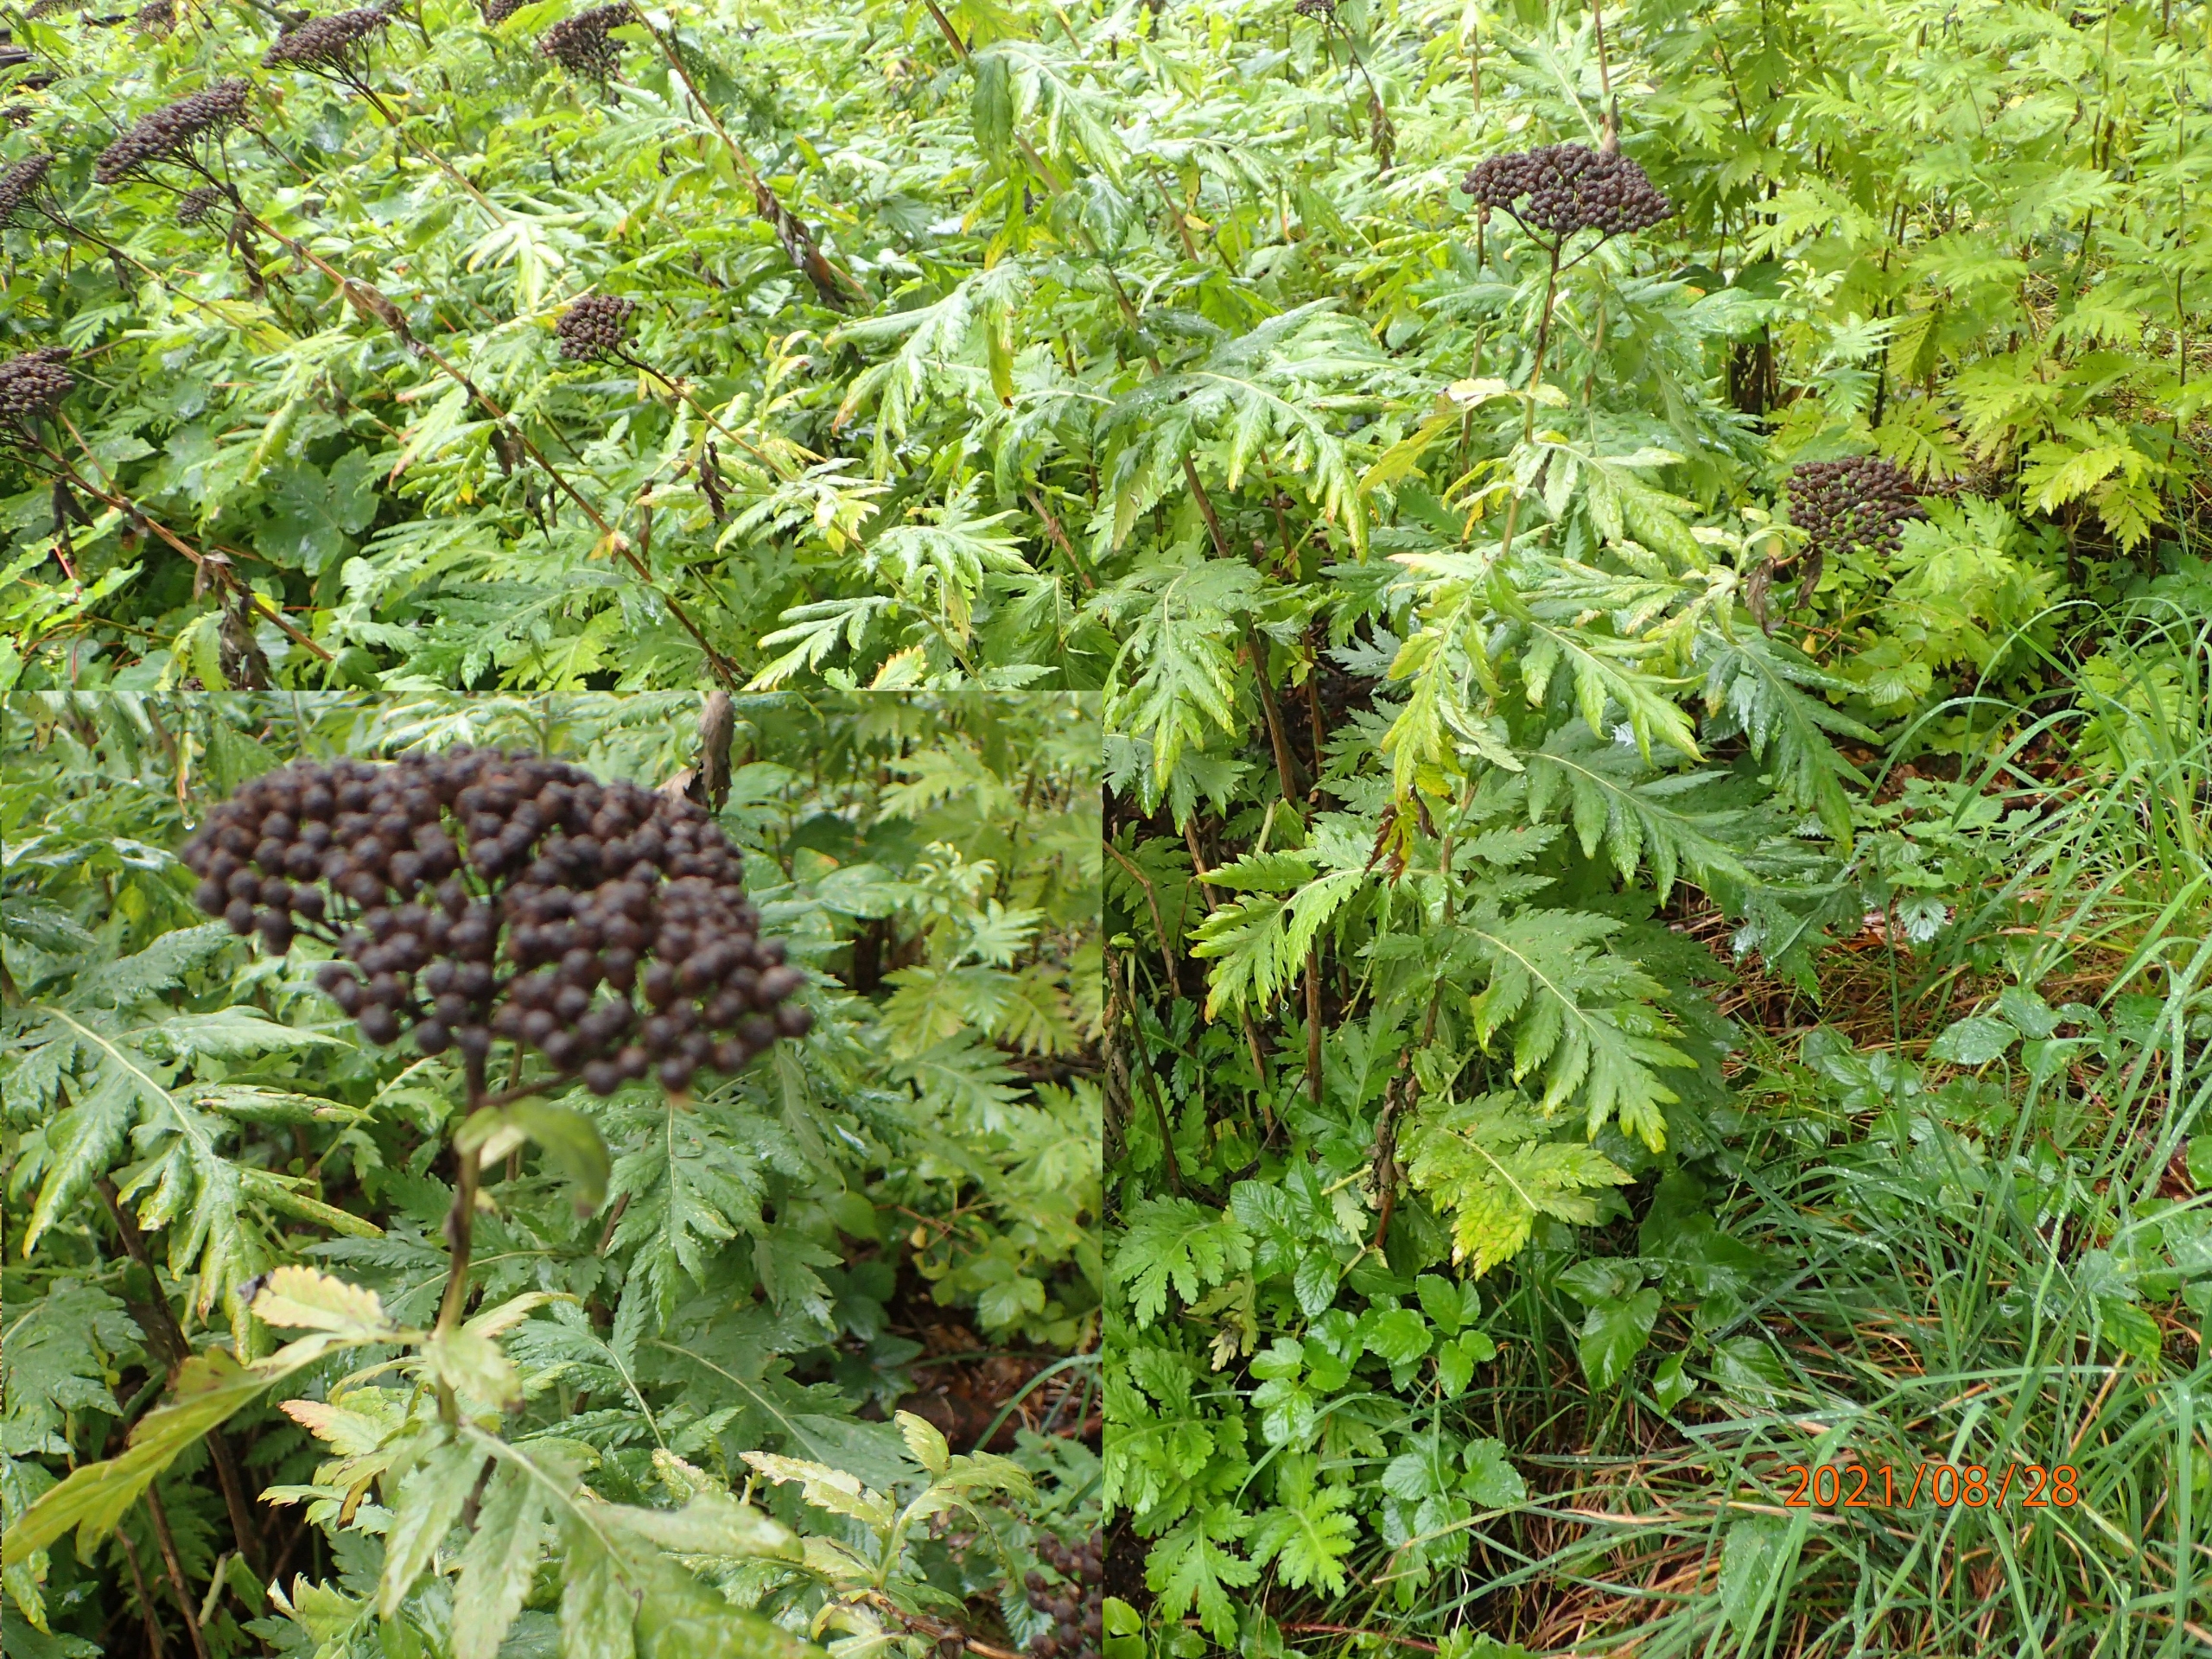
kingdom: Plantae
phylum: Tracheophyta
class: Magnoliopsida
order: Asterales
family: Asteraceae
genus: Tanacetum
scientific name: Tanacetum macrophyllum
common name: Røllike-matrem
